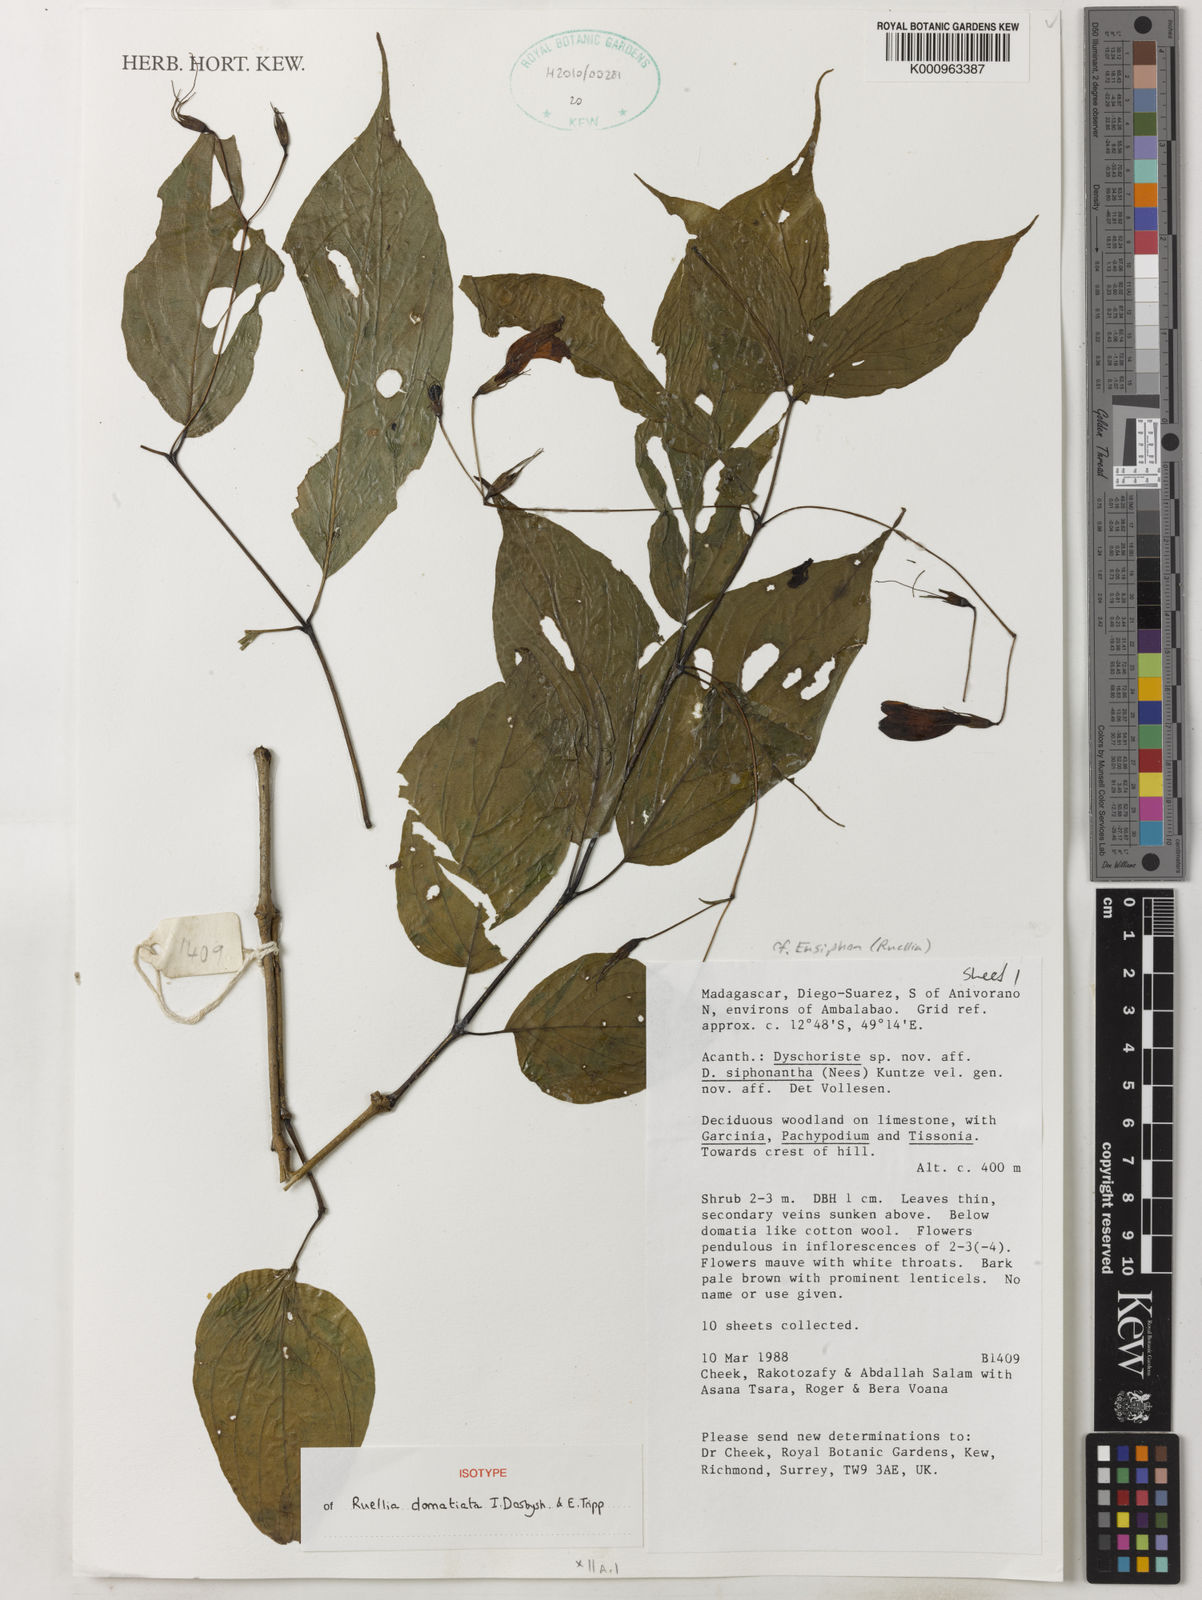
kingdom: Plantae
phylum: Tracheophyta
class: Magnoliopsida
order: Lamiales
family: Acanthaceae
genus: Ruellia
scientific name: Ruellia domatiata
